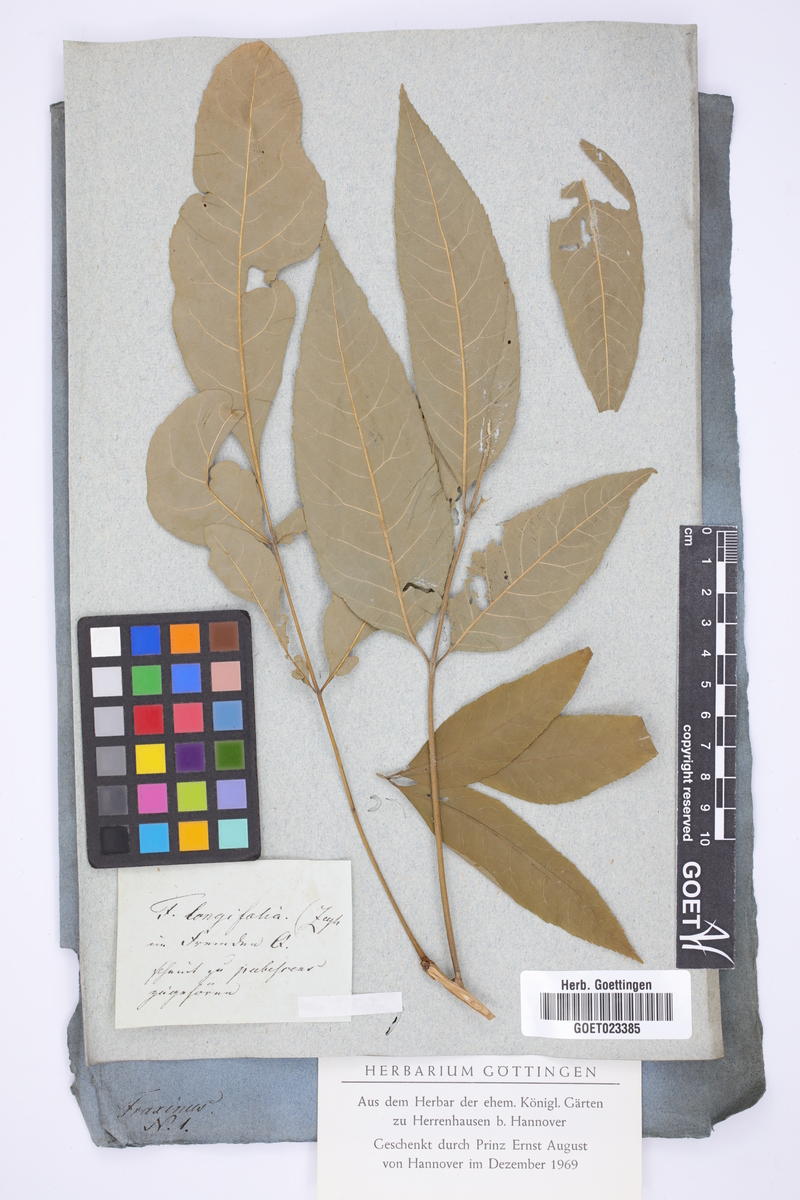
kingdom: Plantae
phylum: Tracheophyta
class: Magnoliopsida
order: Lamiales
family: Oleaceae
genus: Fraxinus
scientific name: Fraxinus pennsylvanica
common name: Green ash
